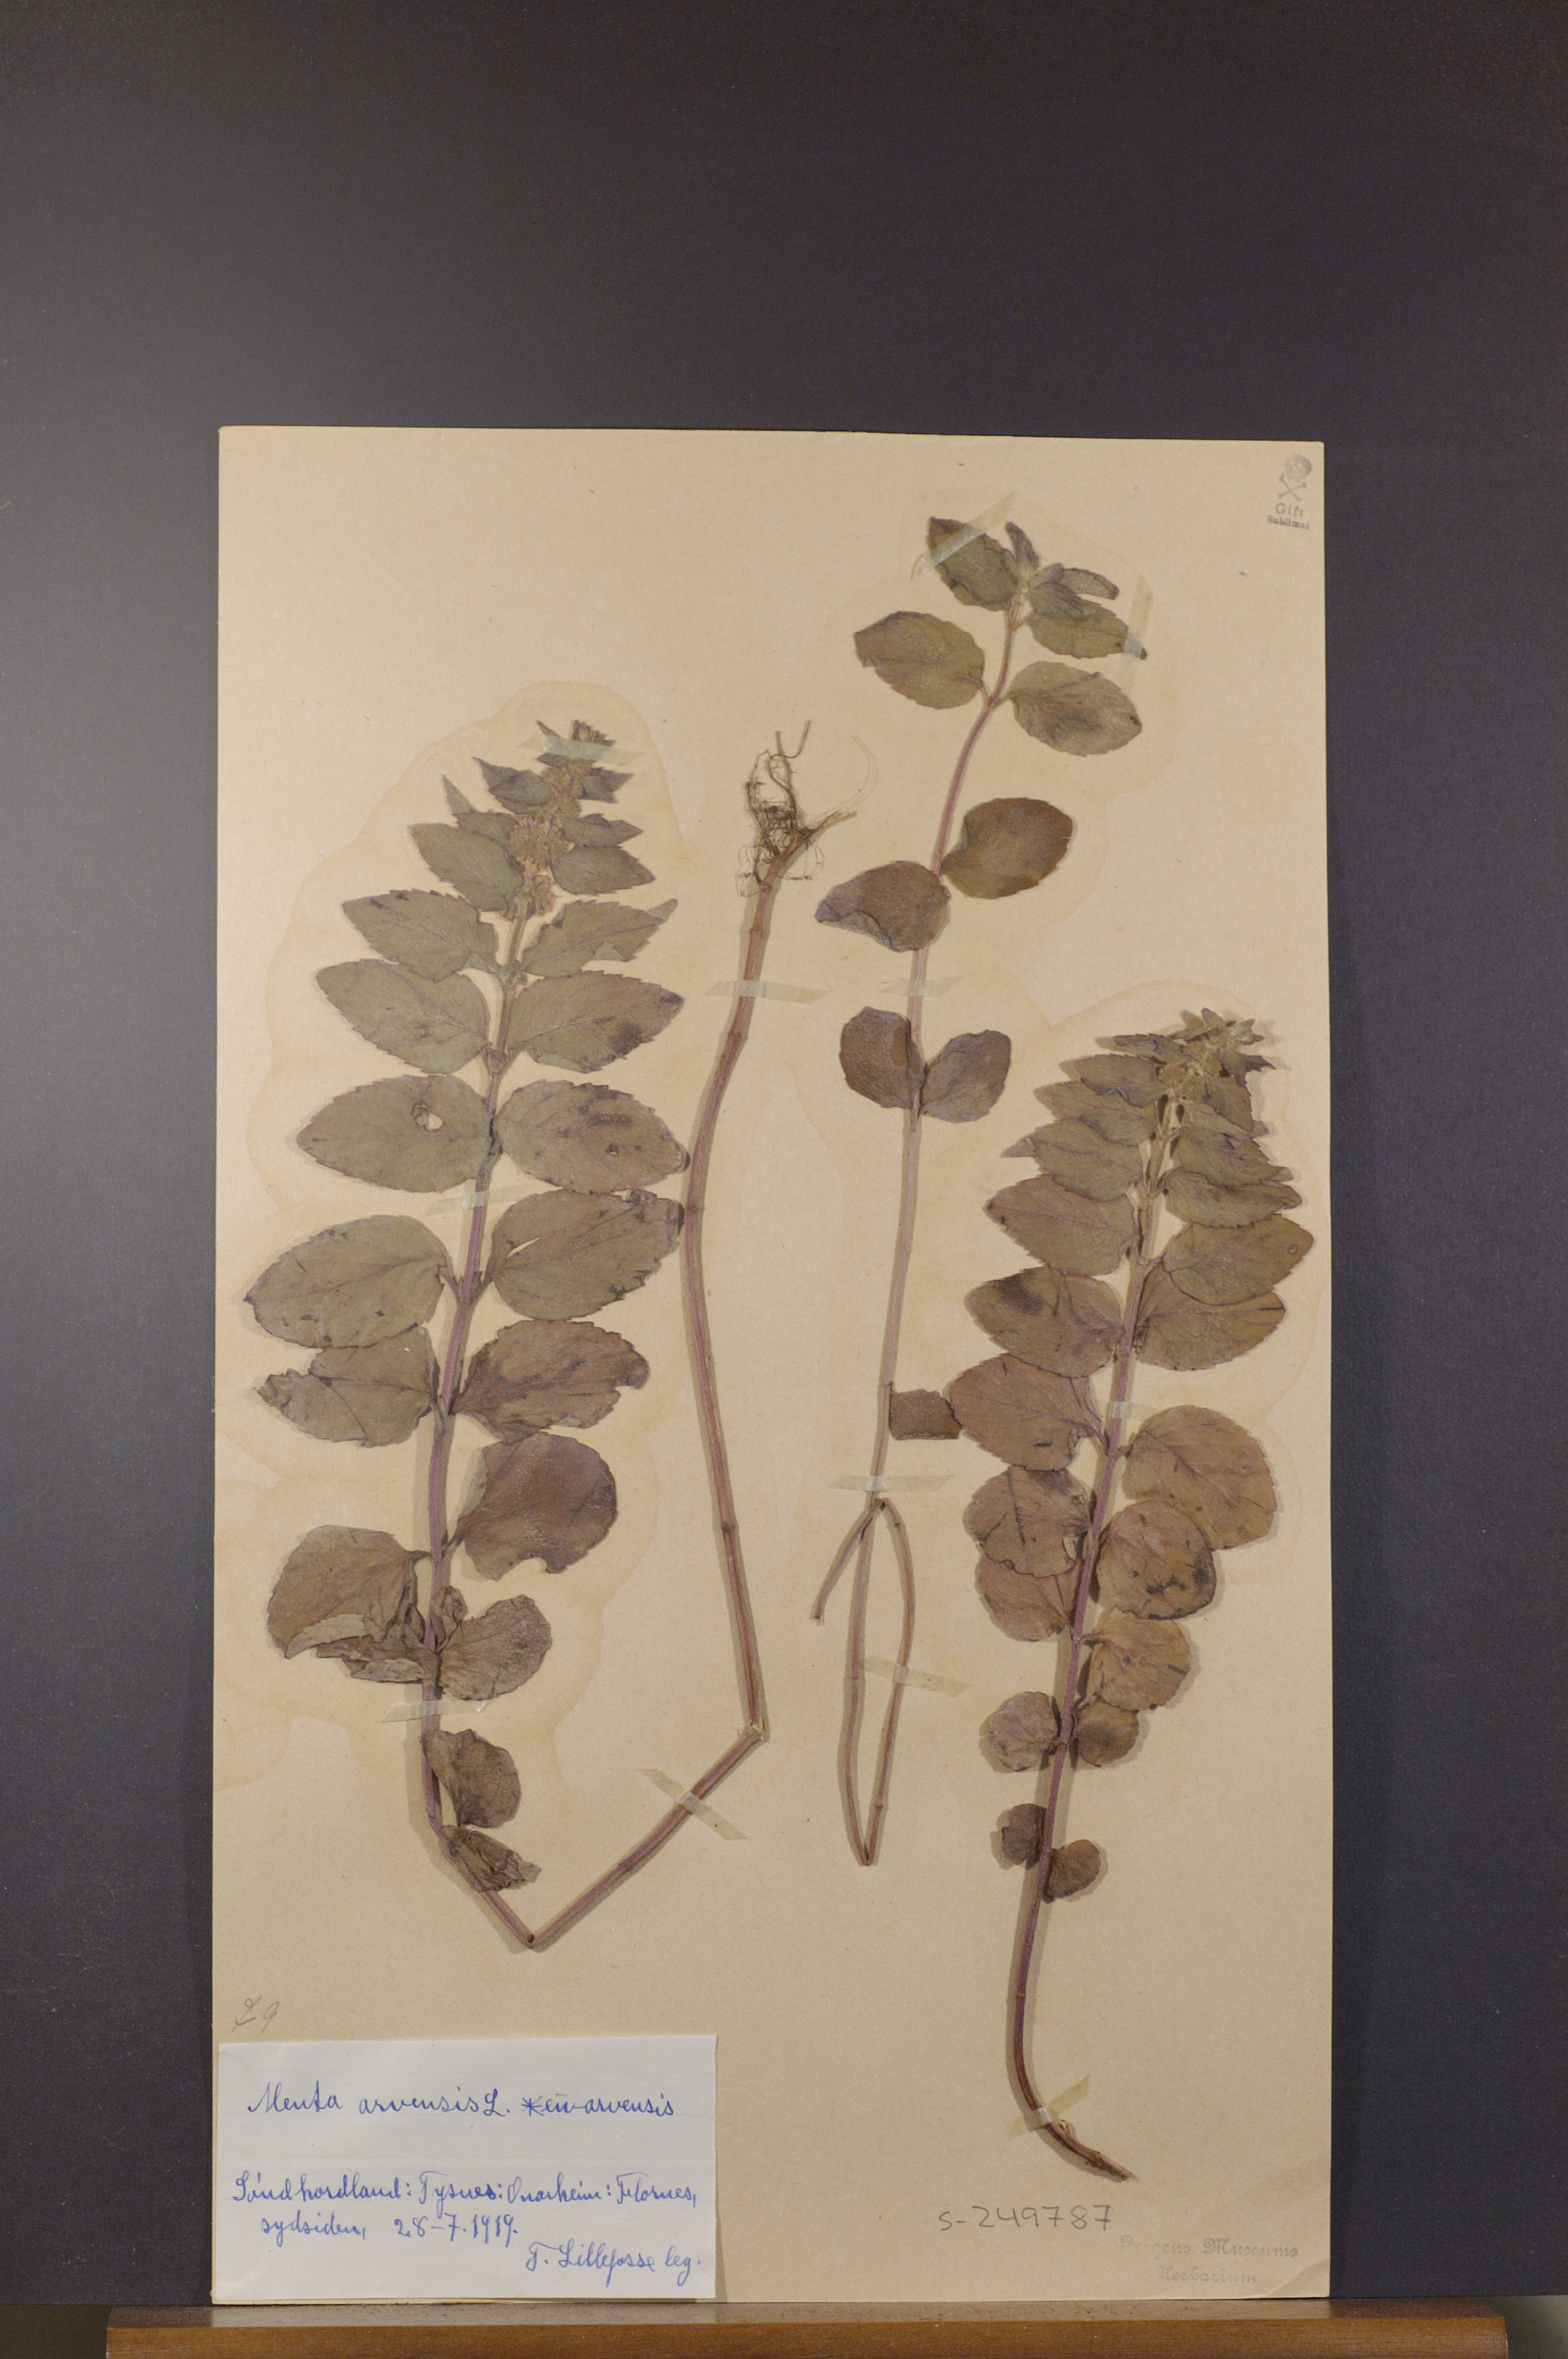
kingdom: Plantae
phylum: Tracheophyta
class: Magnoliopsida
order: Lamiales
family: Lamiaceae
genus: Mentha
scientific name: Mentha arvensis
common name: Corn mint
